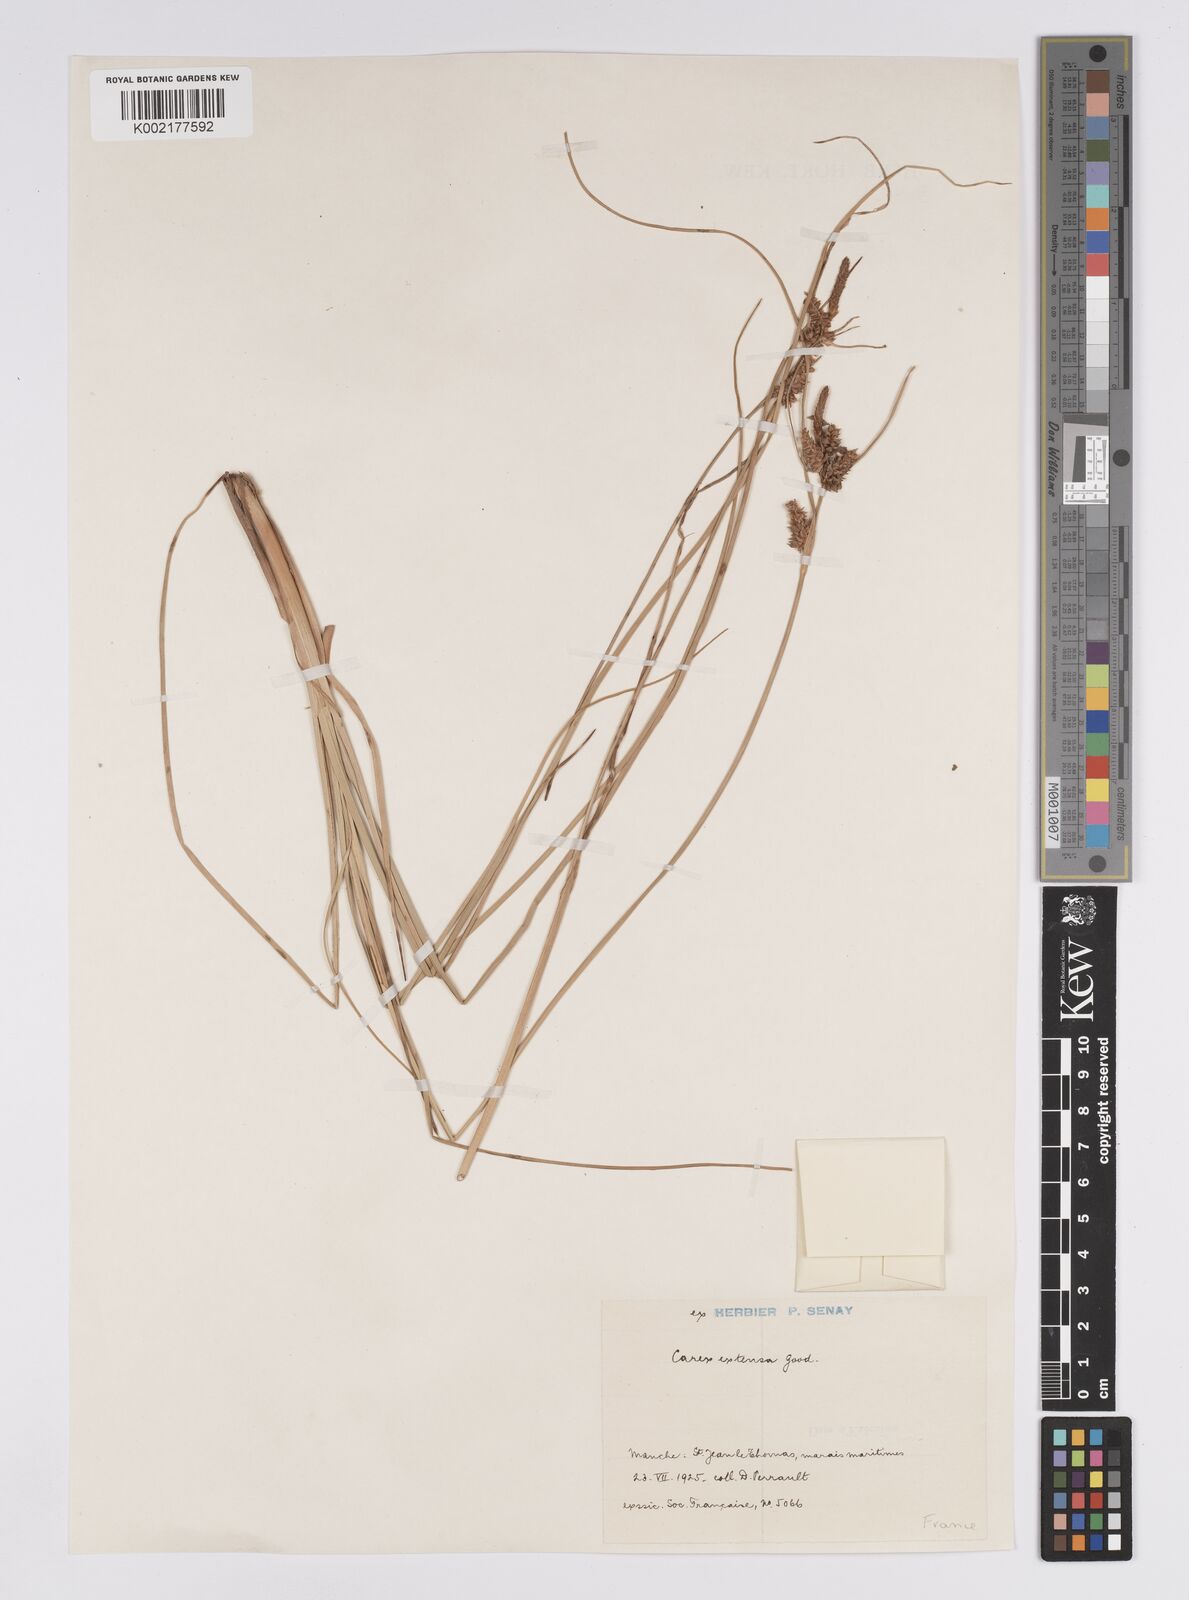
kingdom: Plantae
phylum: Tracheophyta
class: Liliopsida
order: Poales
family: Cyperaceae
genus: Carex
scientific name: Carex extensa
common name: Long-bracted sedge
